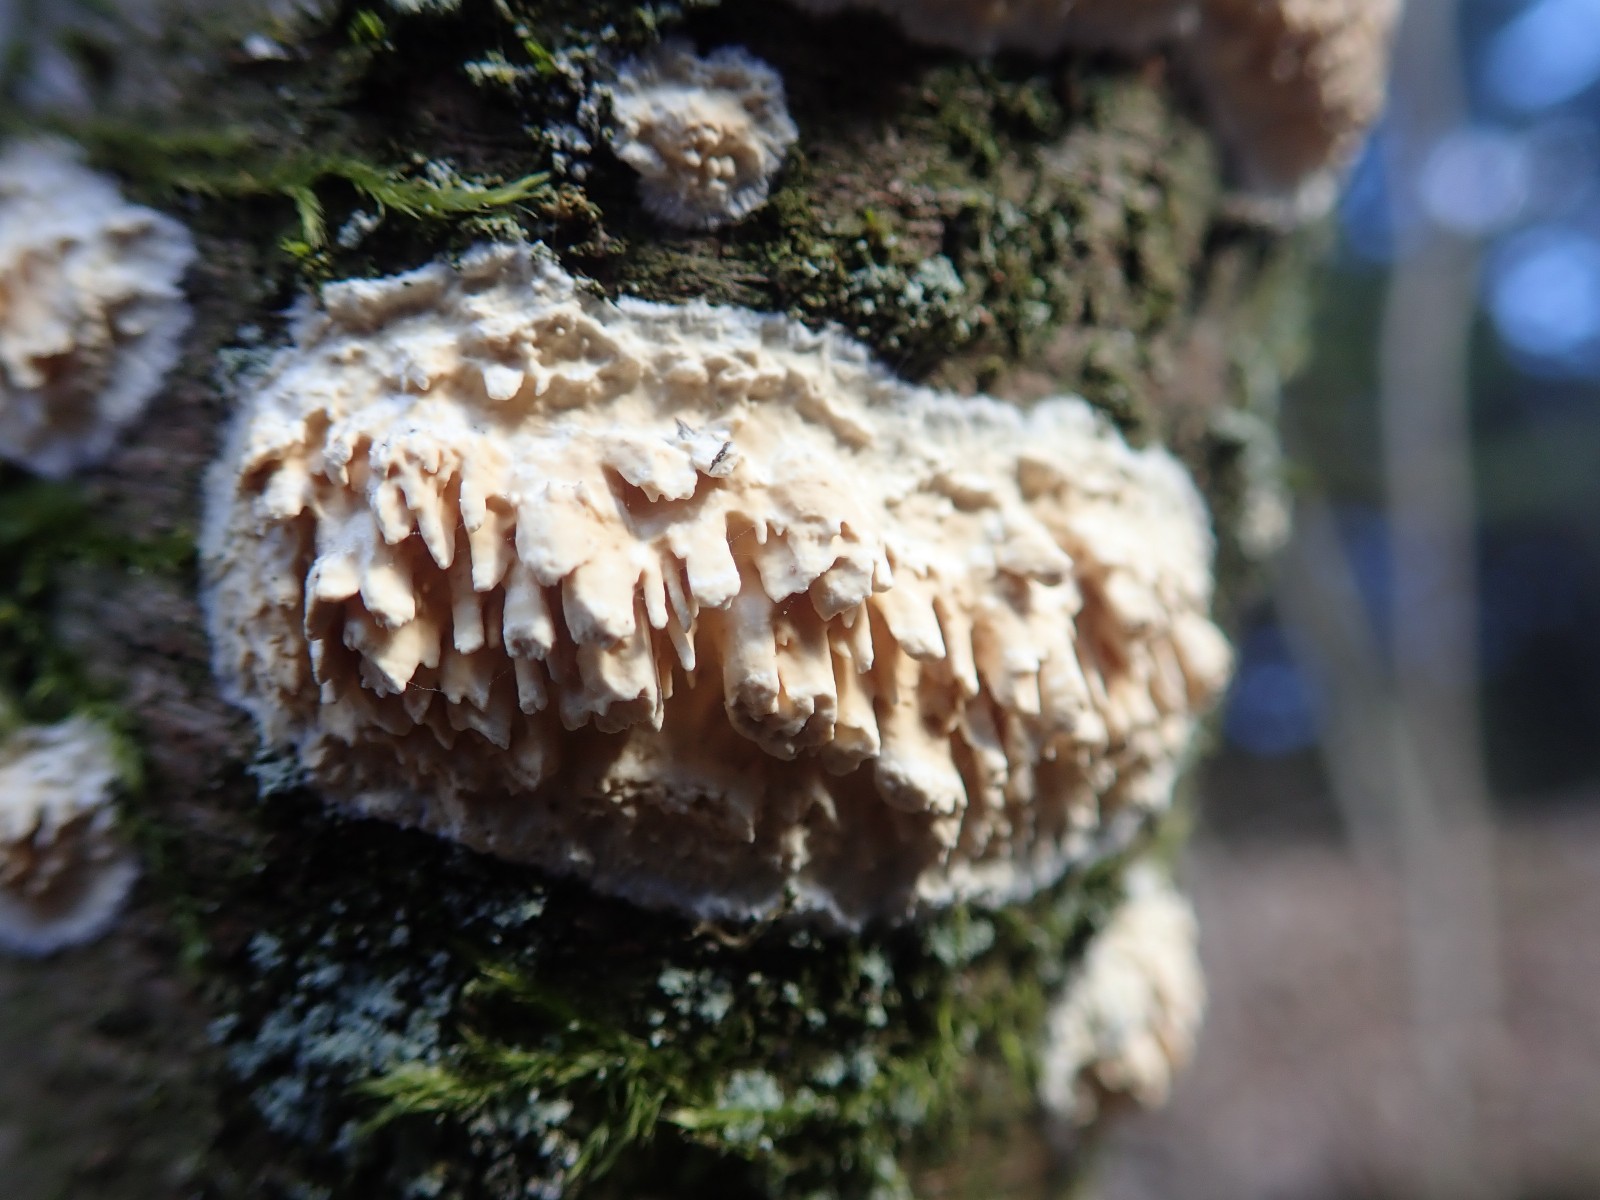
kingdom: Fungi
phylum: Basidiomycota
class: Agaricomycetes
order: Hymenochaetales
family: Schizoporaceae
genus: Xylodon
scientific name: Xylodon radula
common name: grovtandet kalkskind
